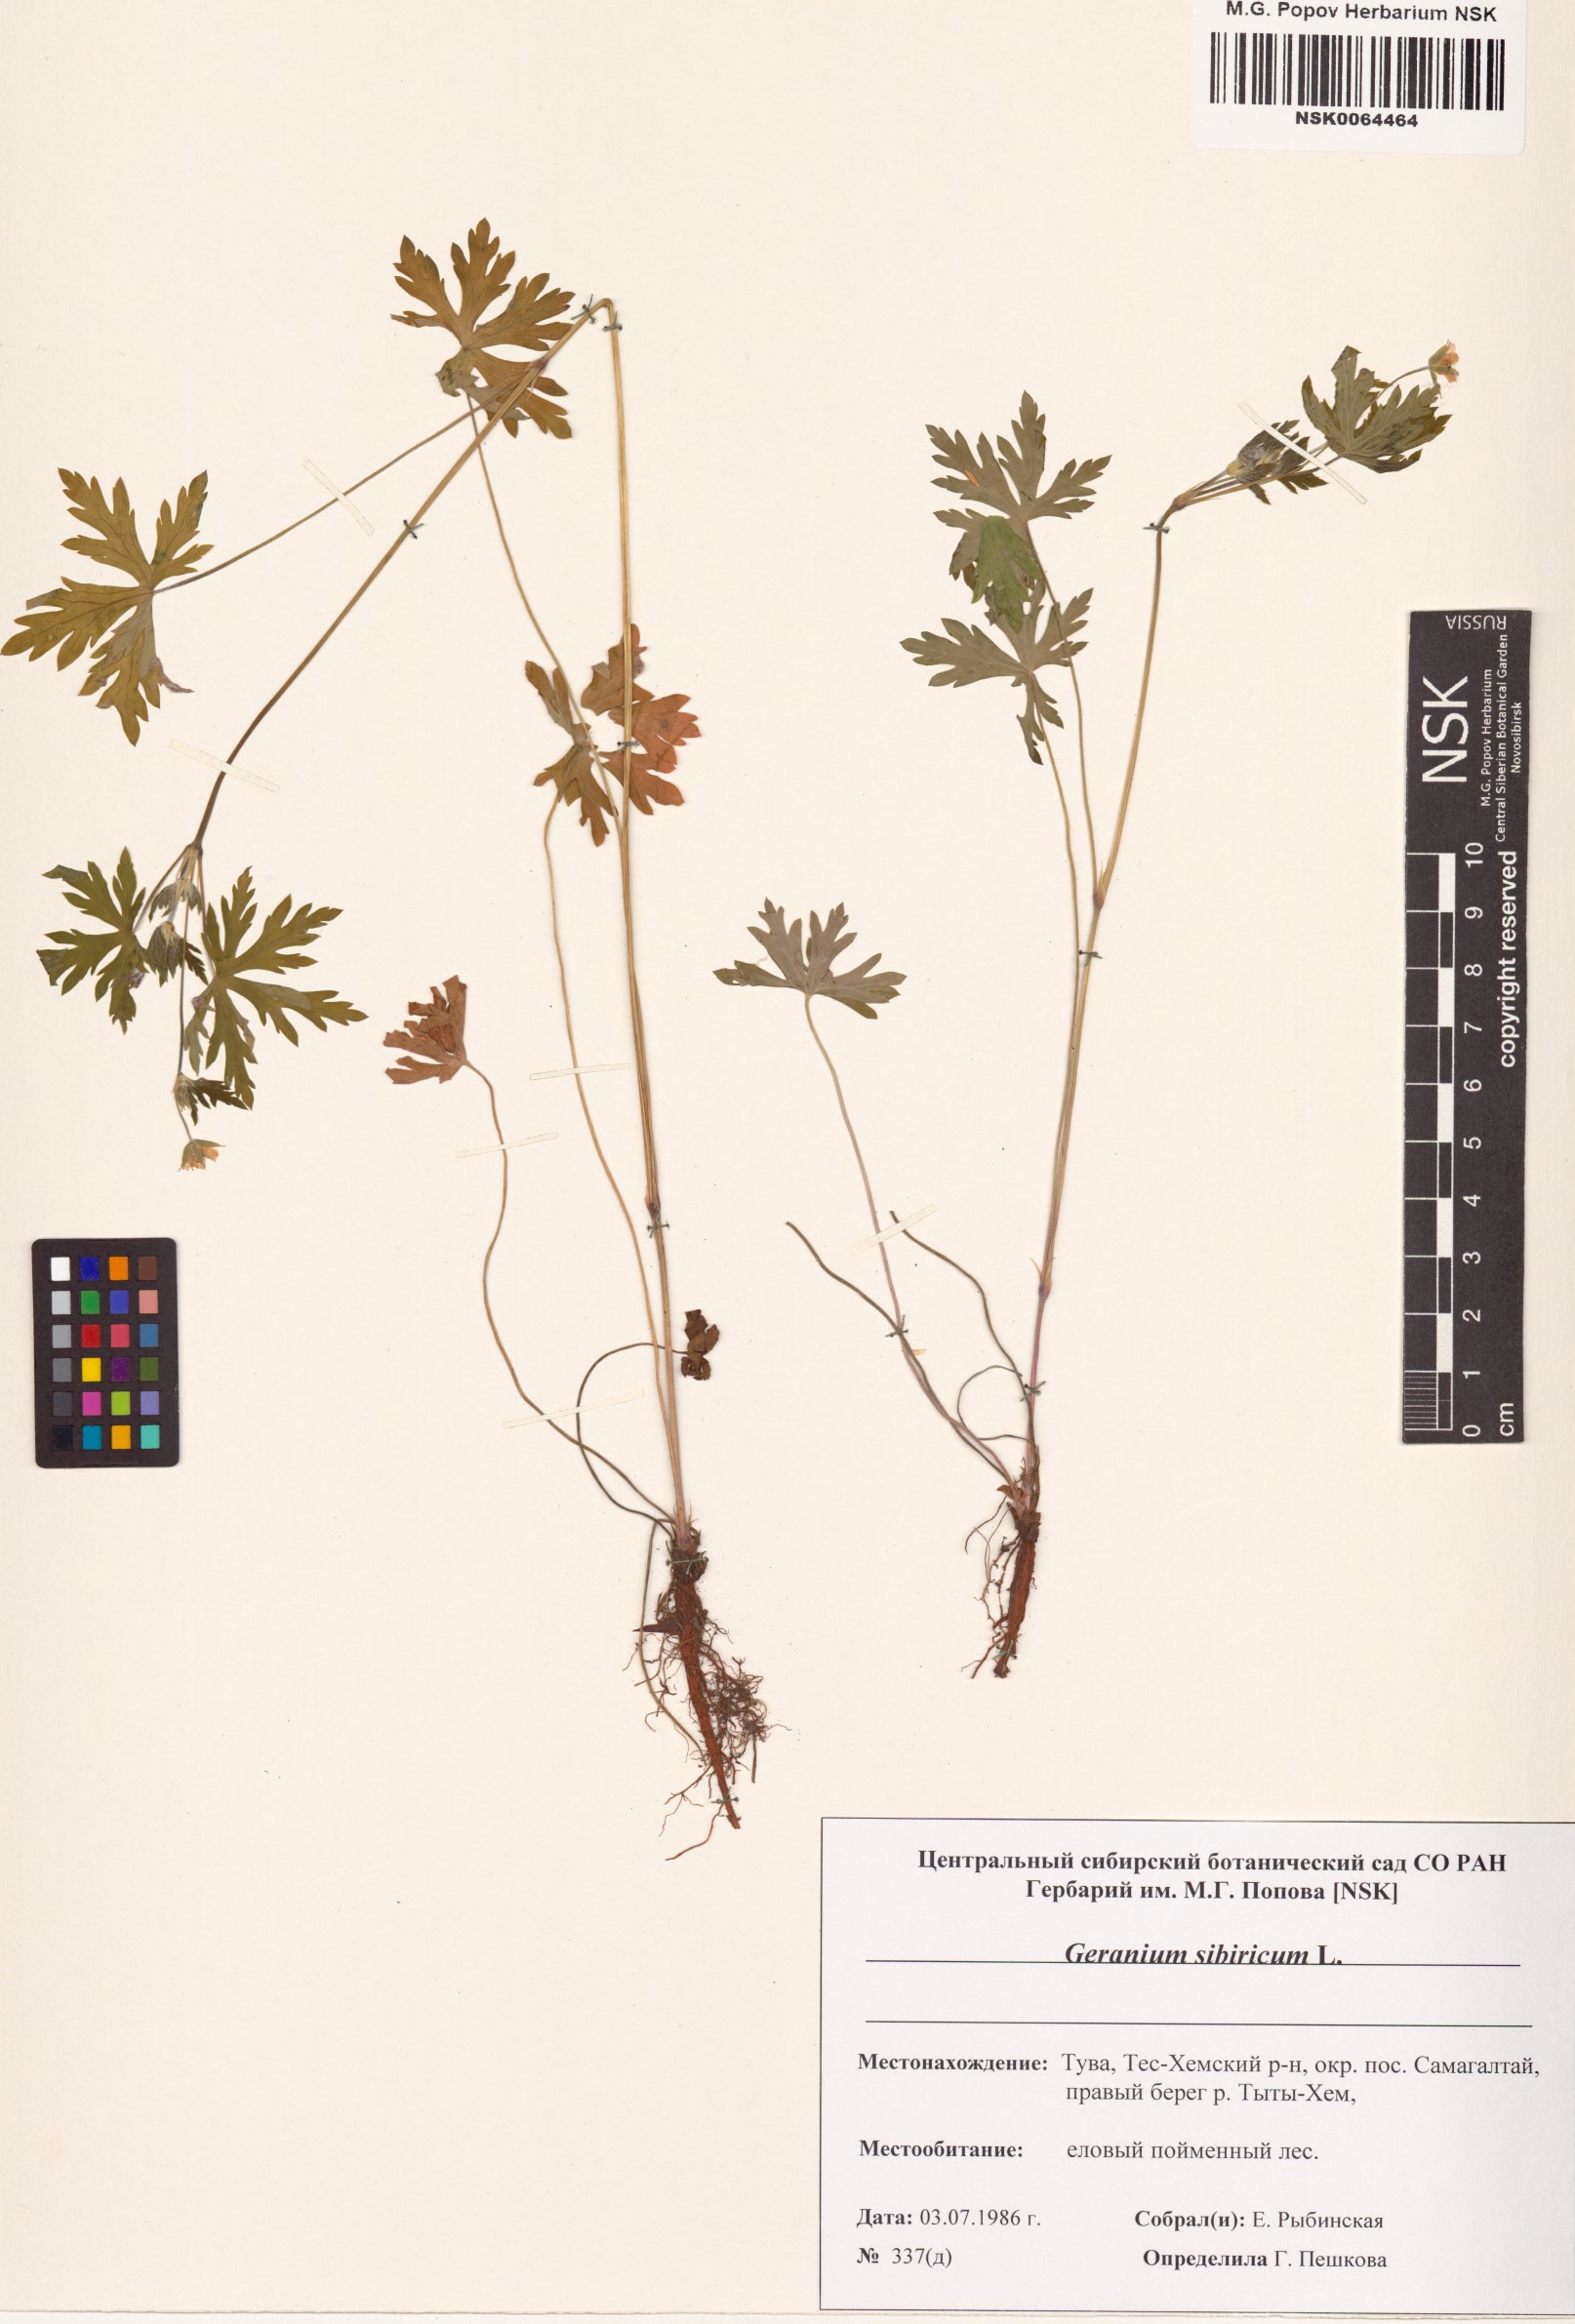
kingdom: Plantae
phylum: Tracheophyta
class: Magnoliopsida
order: Geraniales
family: Geraniaceae
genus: Geranium
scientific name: Geranium sibiricum
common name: Siberian crane's-bill
